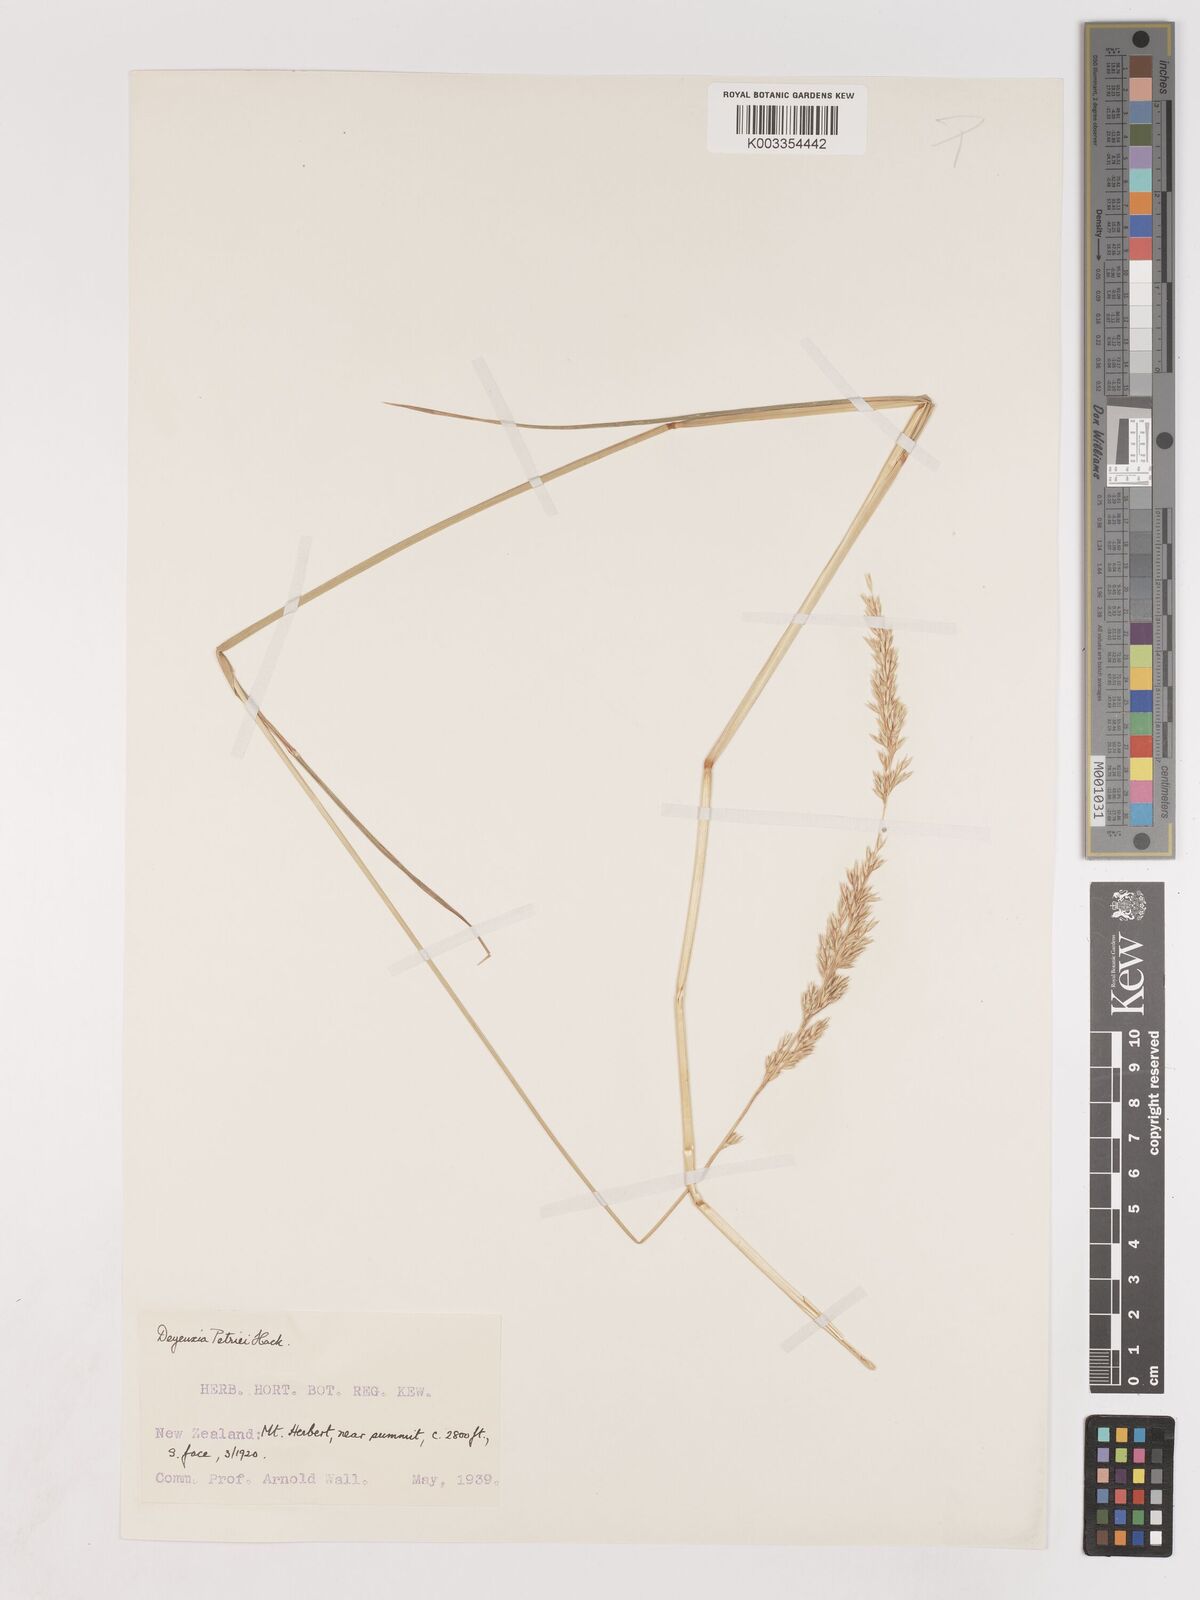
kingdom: Plantae
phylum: Tracheophyta
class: Liliopsida
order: Poales
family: Poaceae
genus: Calamagrostis
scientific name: Calamagrostis youngii
